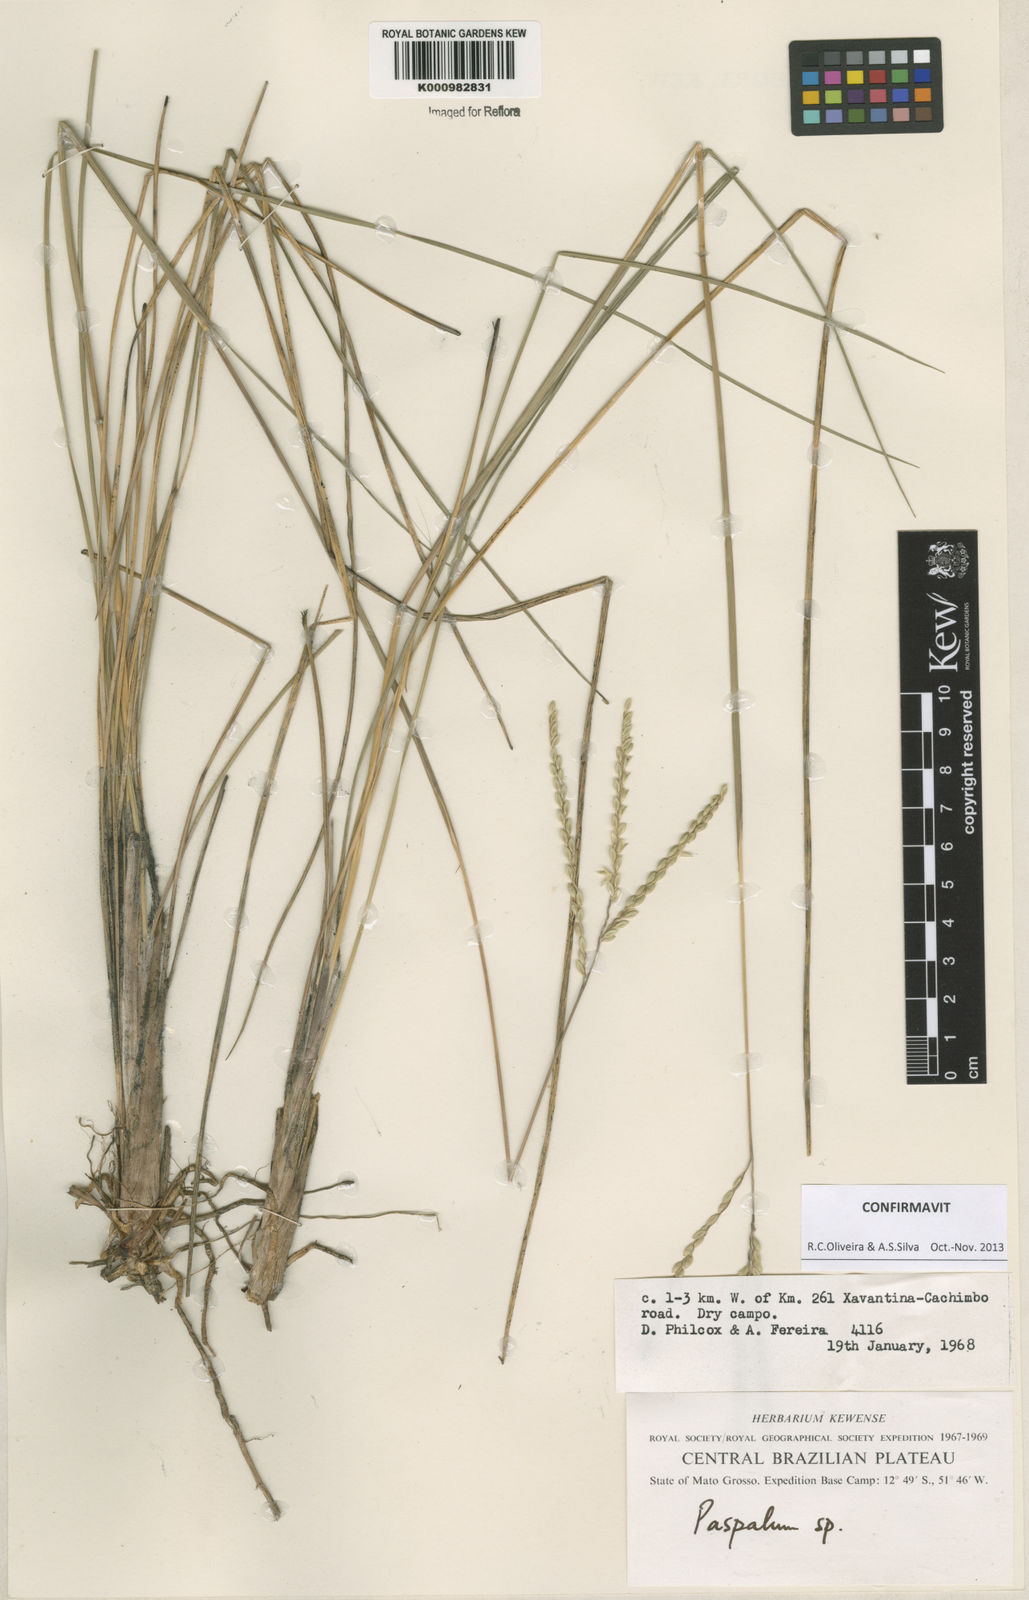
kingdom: Plantae
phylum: Tracheophyta
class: Liliopsida
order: Poales
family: Poaceae
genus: Paspalum
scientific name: Paspalum lineare
